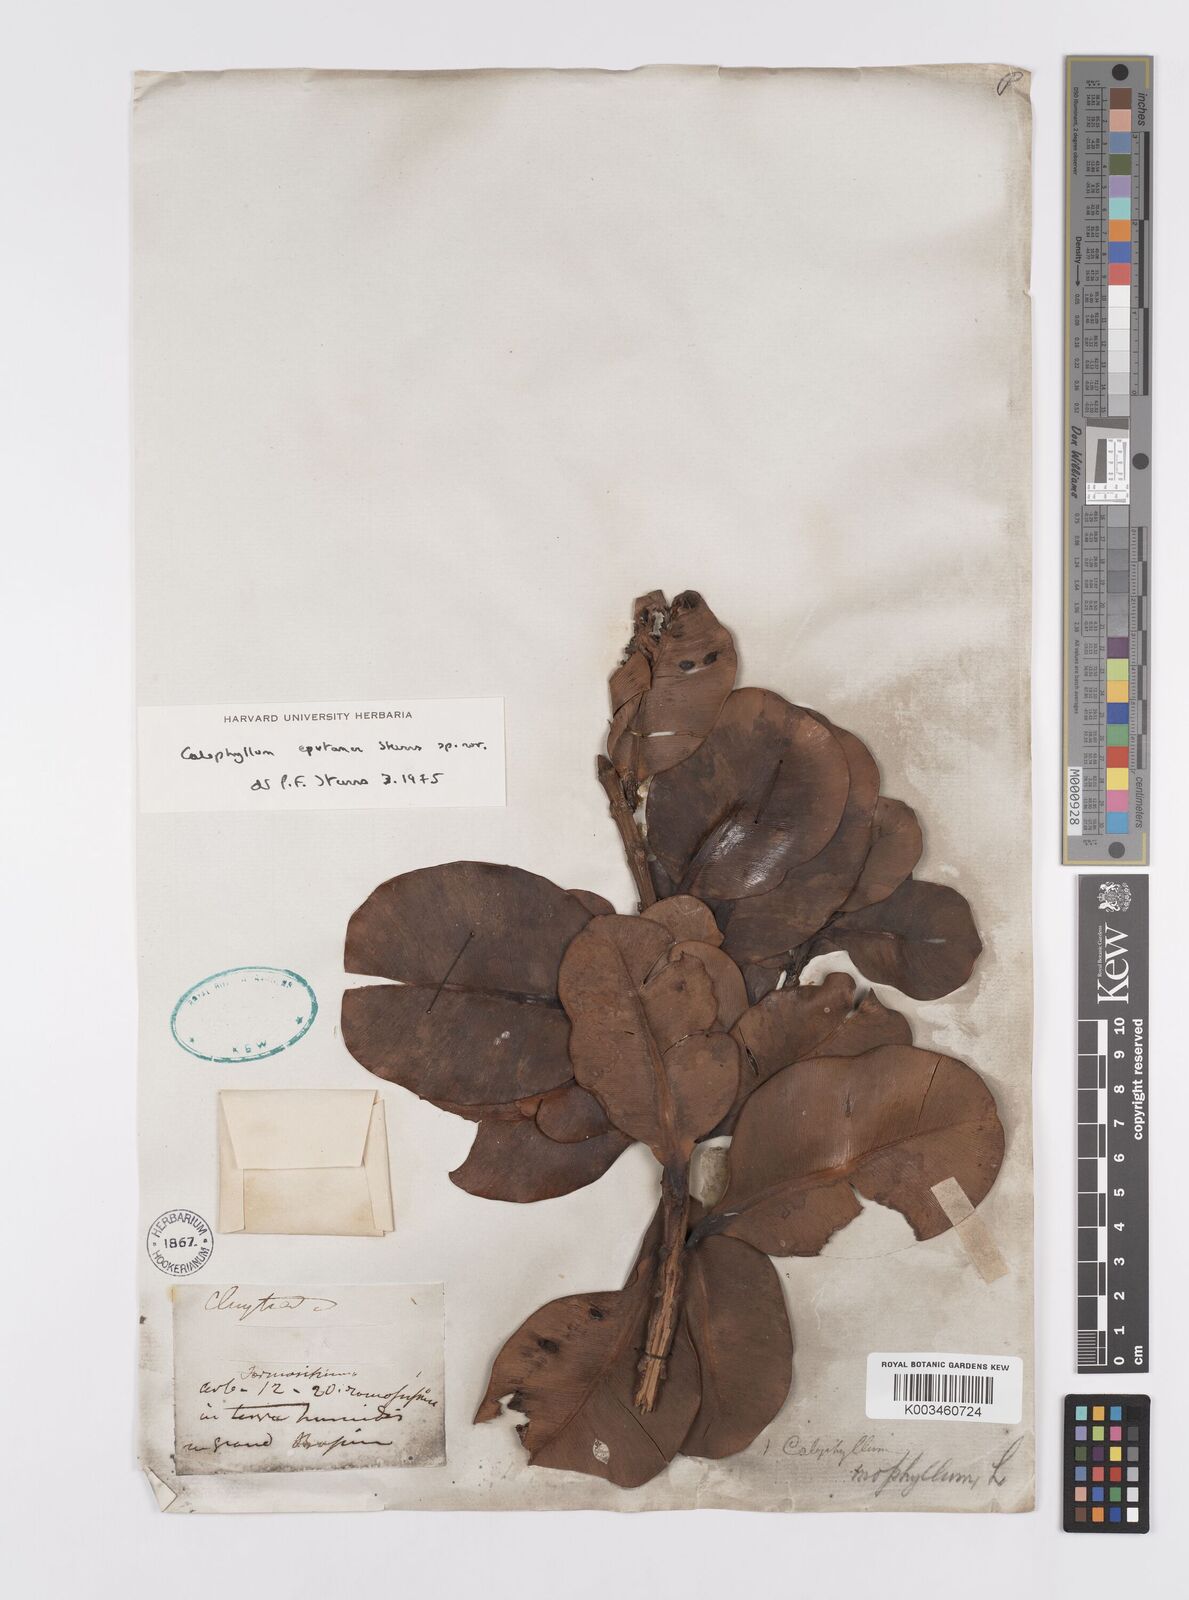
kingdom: Plantae
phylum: Tracheophyta
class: Magnoliopsida
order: Malpighiales
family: Calophyllaceae
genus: Calophyllum
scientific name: Calophyllum eputamen
